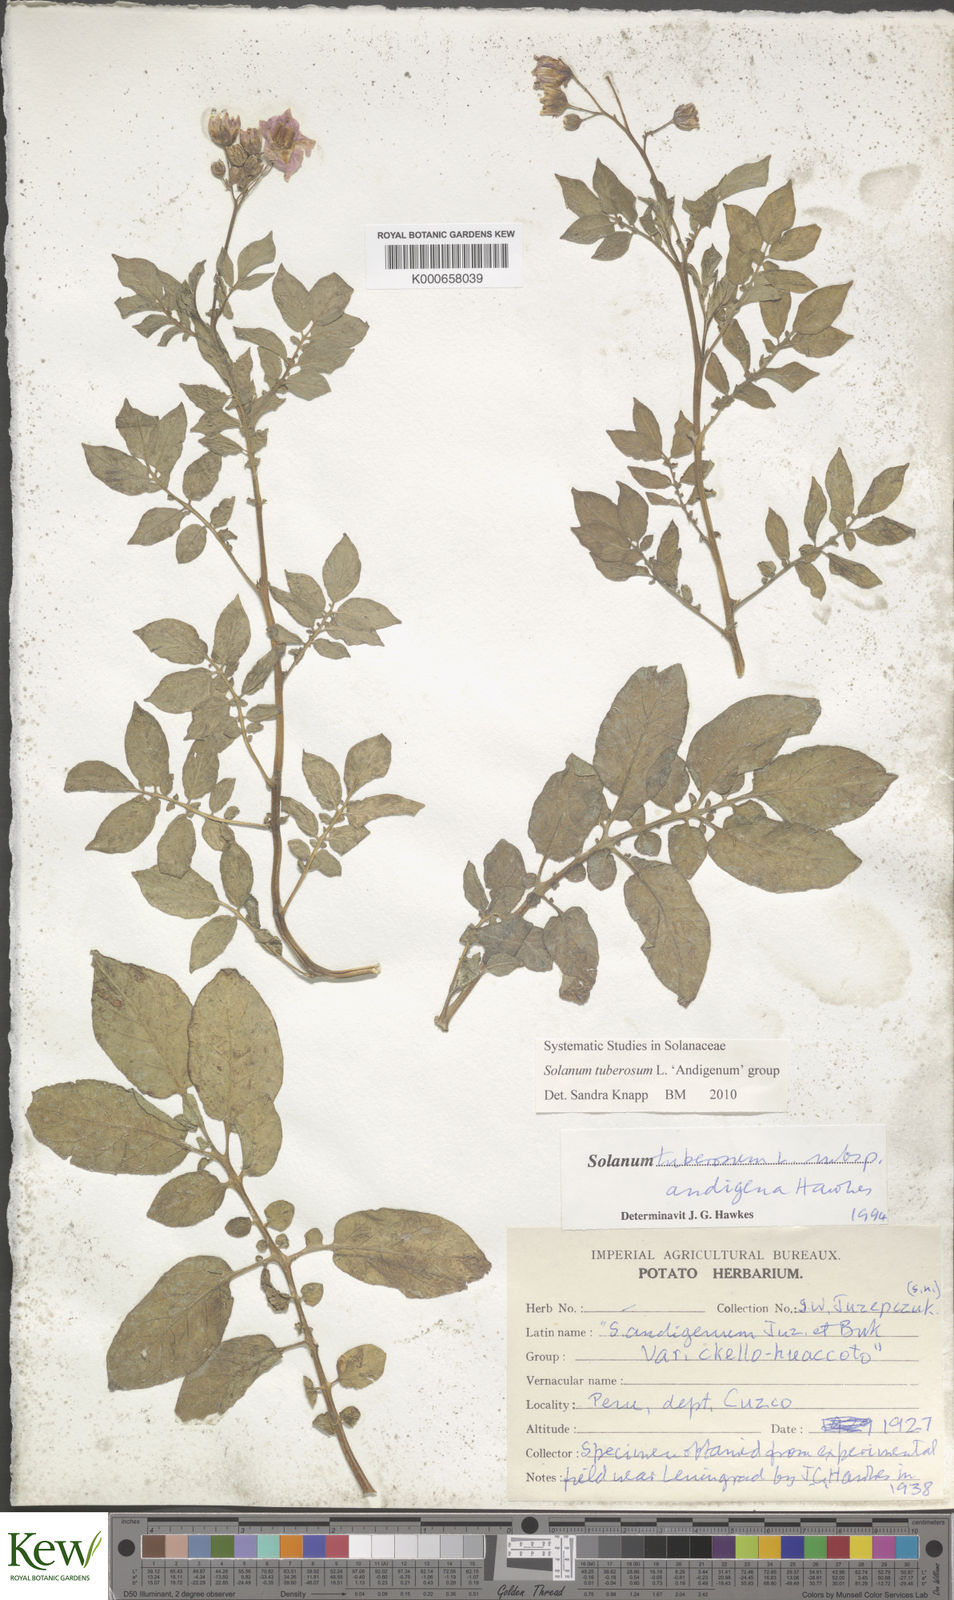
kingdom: Plantae
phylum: Tracheophyta
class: Magnoliopsida
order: Solanales
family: Solanaceae
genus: Solanum
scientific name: Solanum tuberosum
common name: Potato
